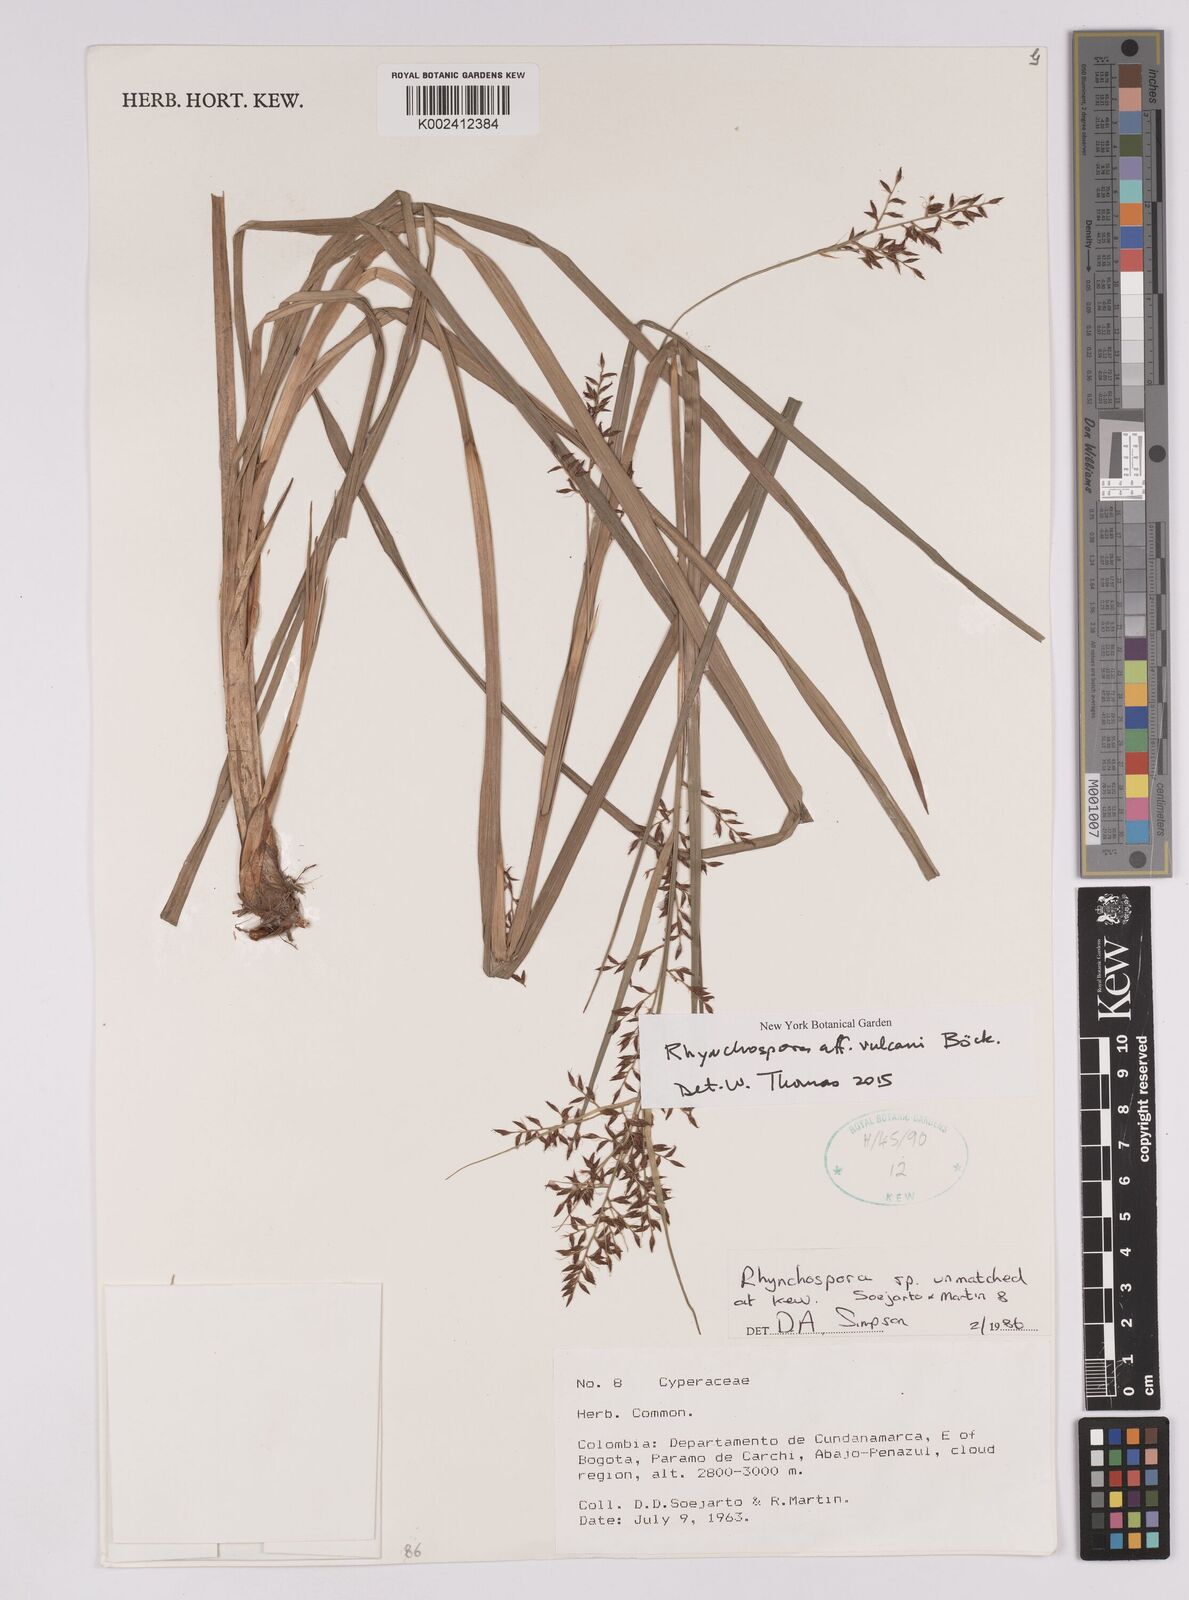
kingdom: Plantae
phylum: Tracheophyta
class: Liliopsida
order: Poales
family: Cyperaceae
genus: Rhynchospora
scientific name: Rhynchospora vulcani
